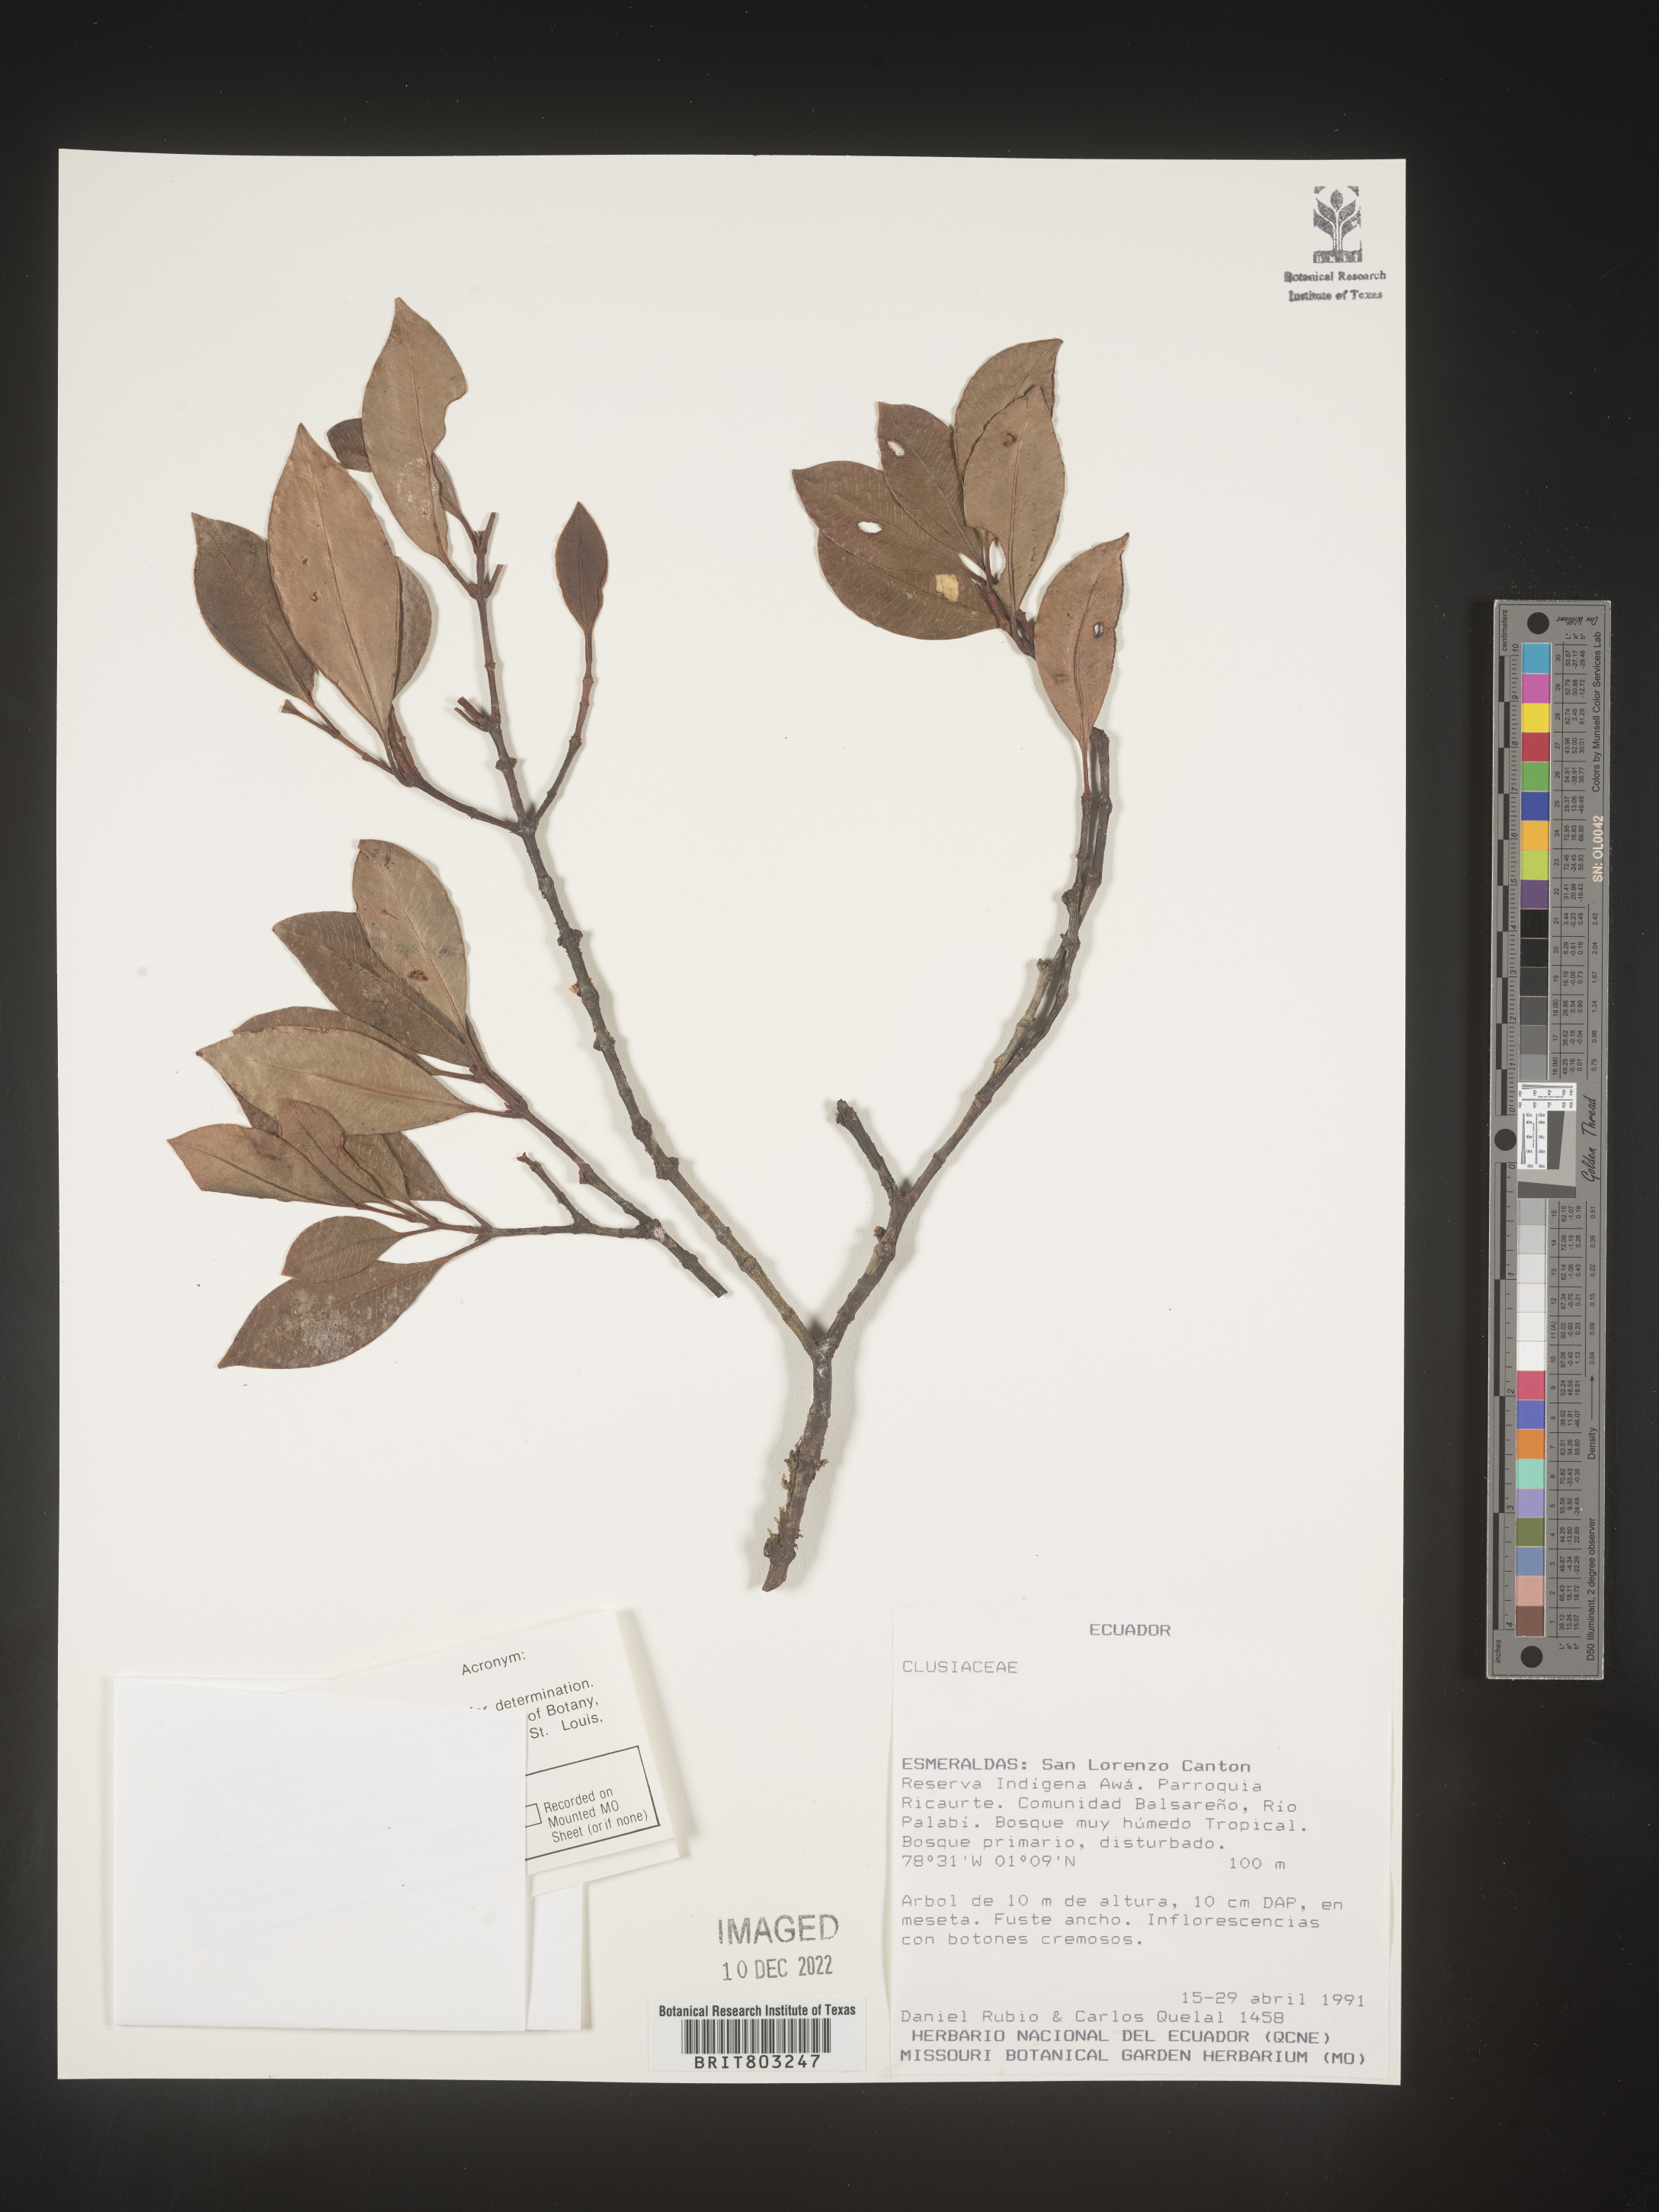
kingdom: Plantae
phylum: Tracheophyta
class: Magnoliopsida
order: Malpighiales
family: Clusiaceae
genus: Tovomita
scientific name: Tovomita
